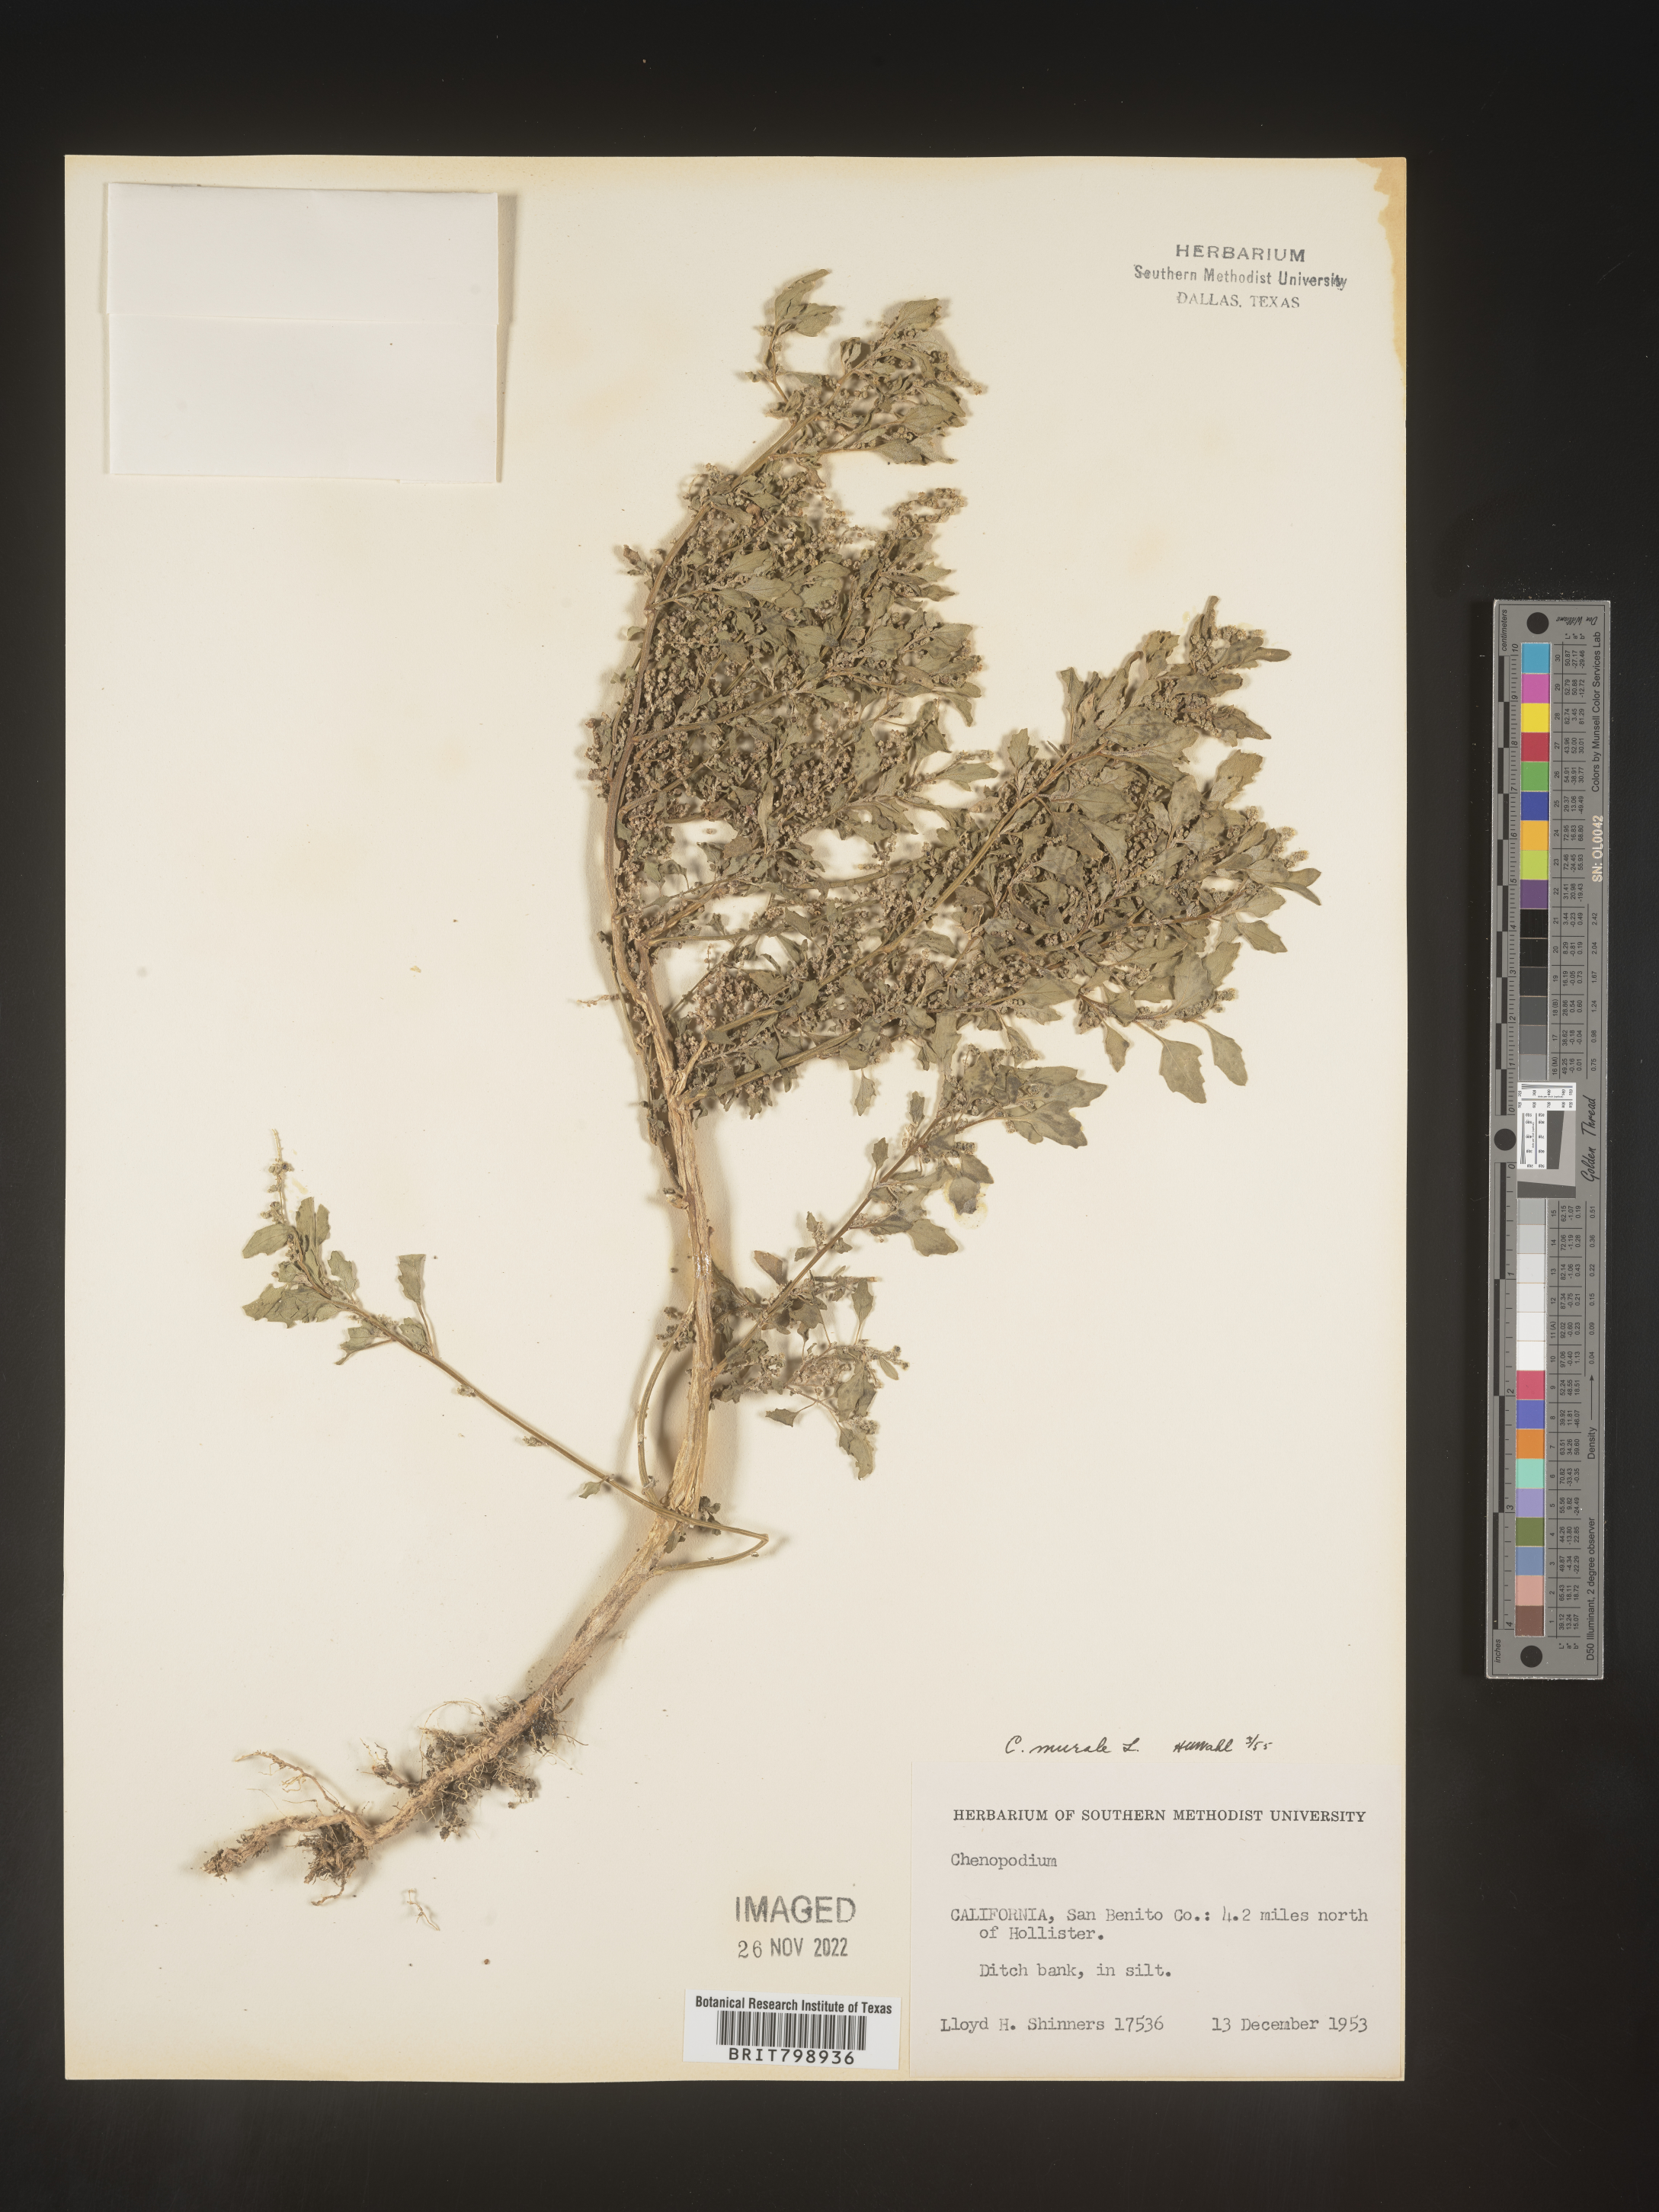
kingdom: Plantae
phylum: Tracheophyta
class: Magnoliopsida
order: Caryophyllales
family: Amaranthaceae
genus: Chenopodiastrum
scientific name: Chenopodiastrum murale
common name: Sowbane
